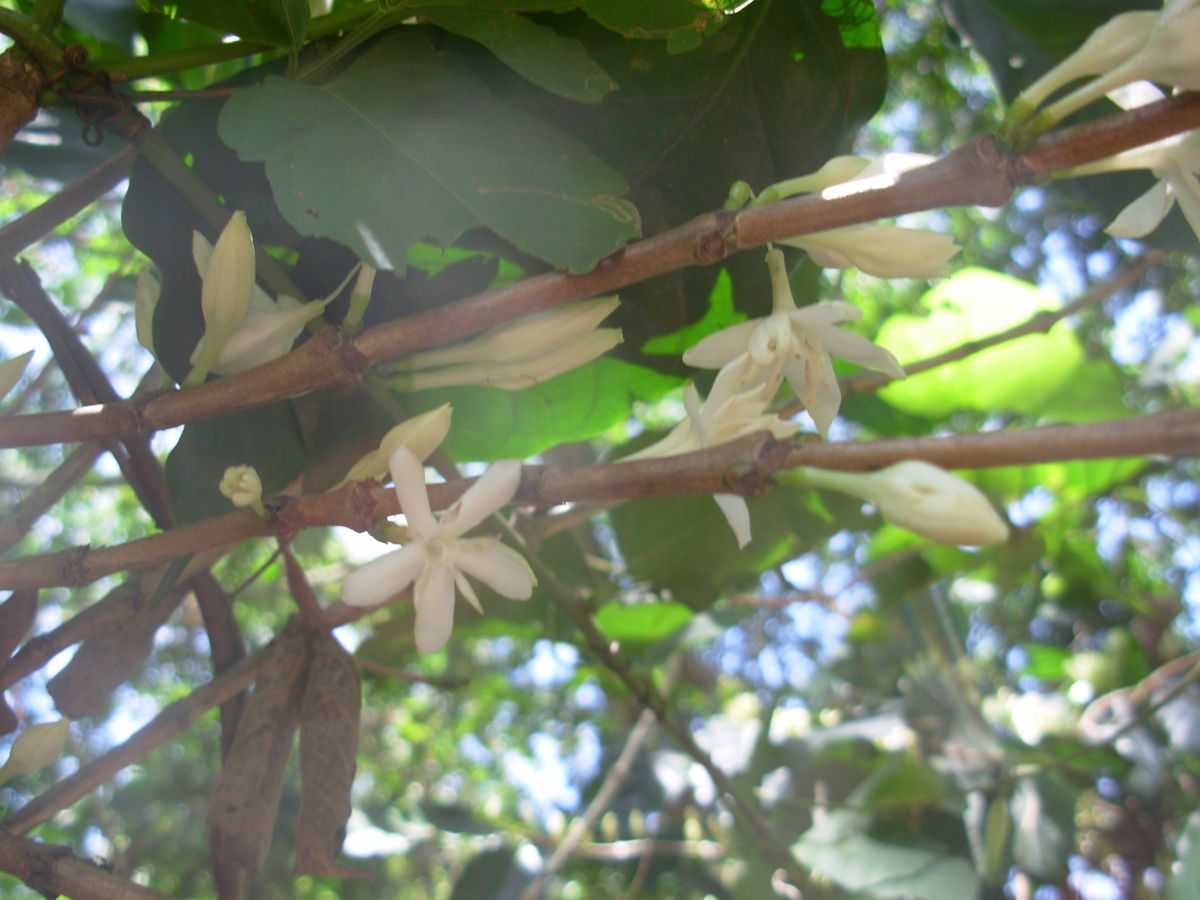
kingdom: Plantae
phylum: Tracheophyta
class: Magnoliopsida
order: Gentianales
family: Rubiaceae
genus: Coffea
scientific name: Coffea arabica
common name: Coffee
